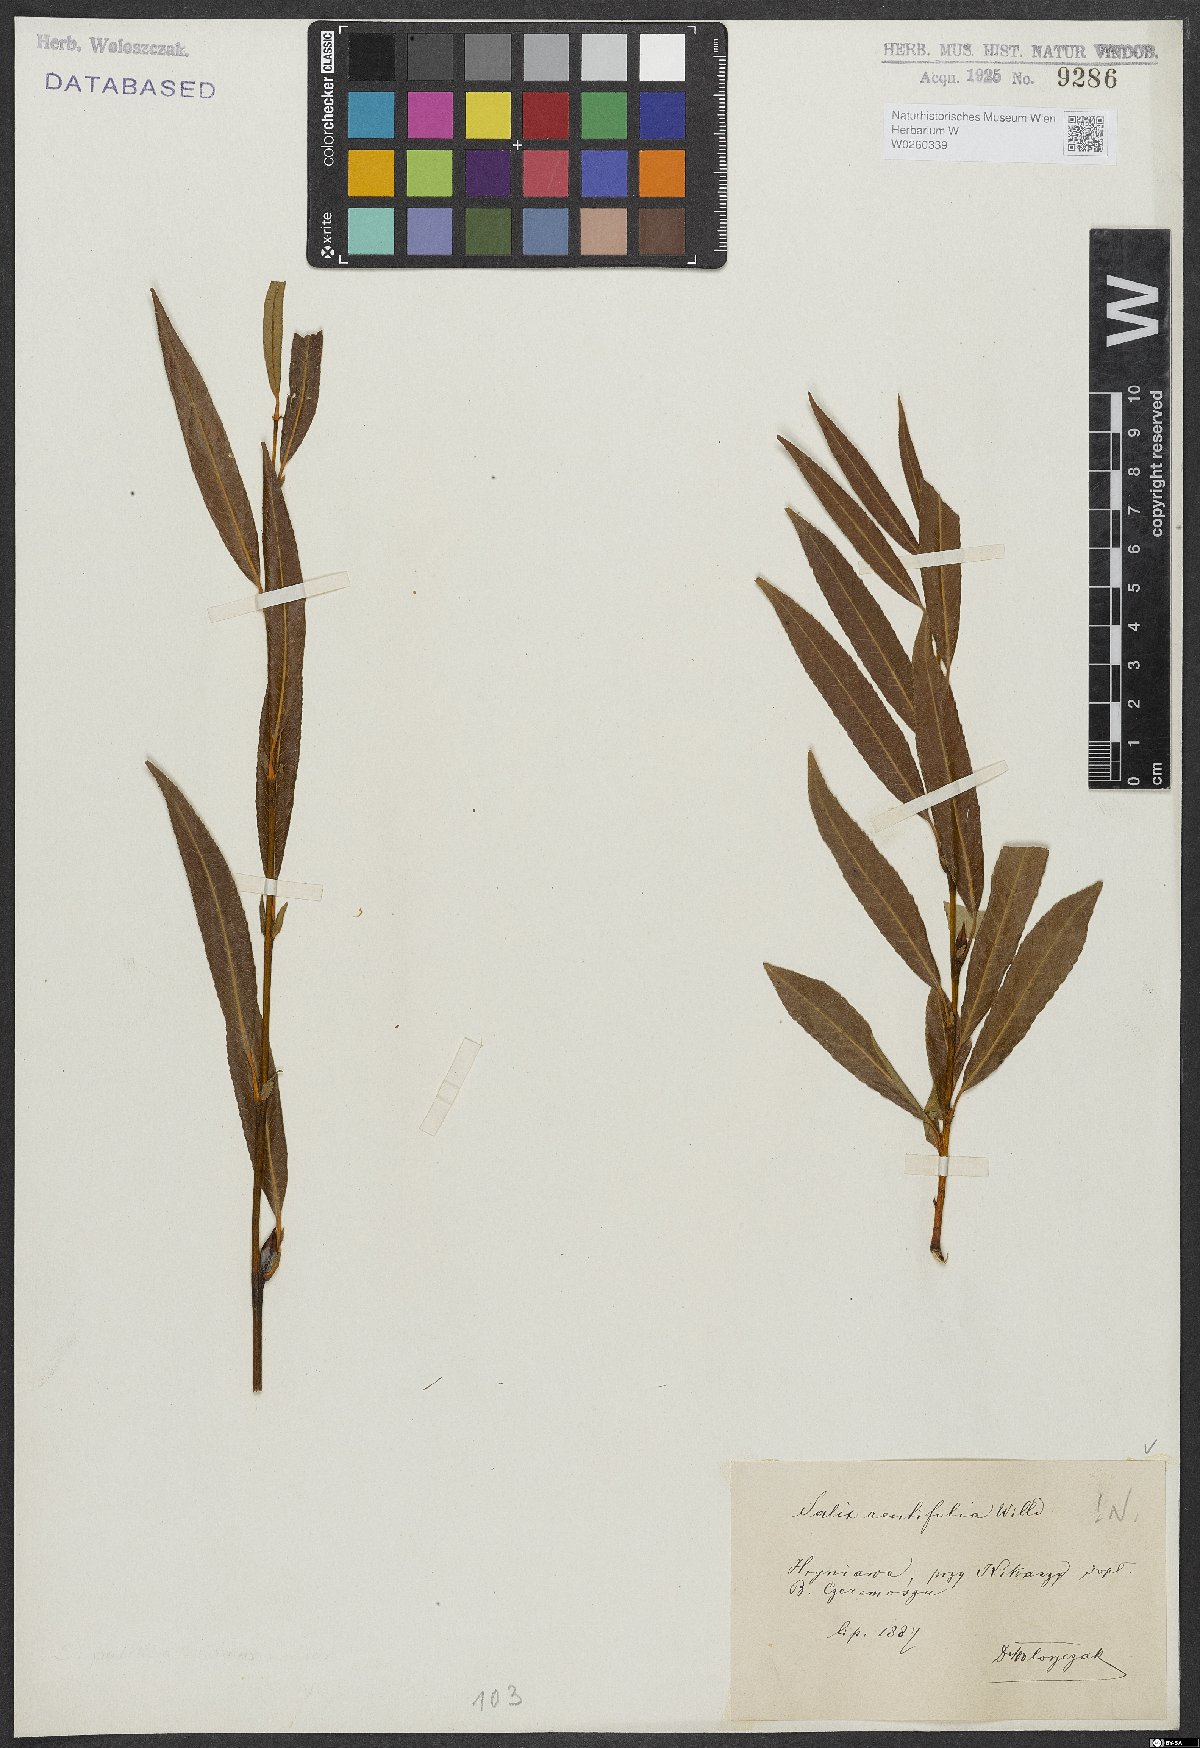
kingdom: Plantae
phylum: Tracheophyta
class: Magnoliopsida
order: Malpighiales
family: Salicaceae
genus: Salix
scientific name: Salix acutifolia
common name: Siberian violet-willow
